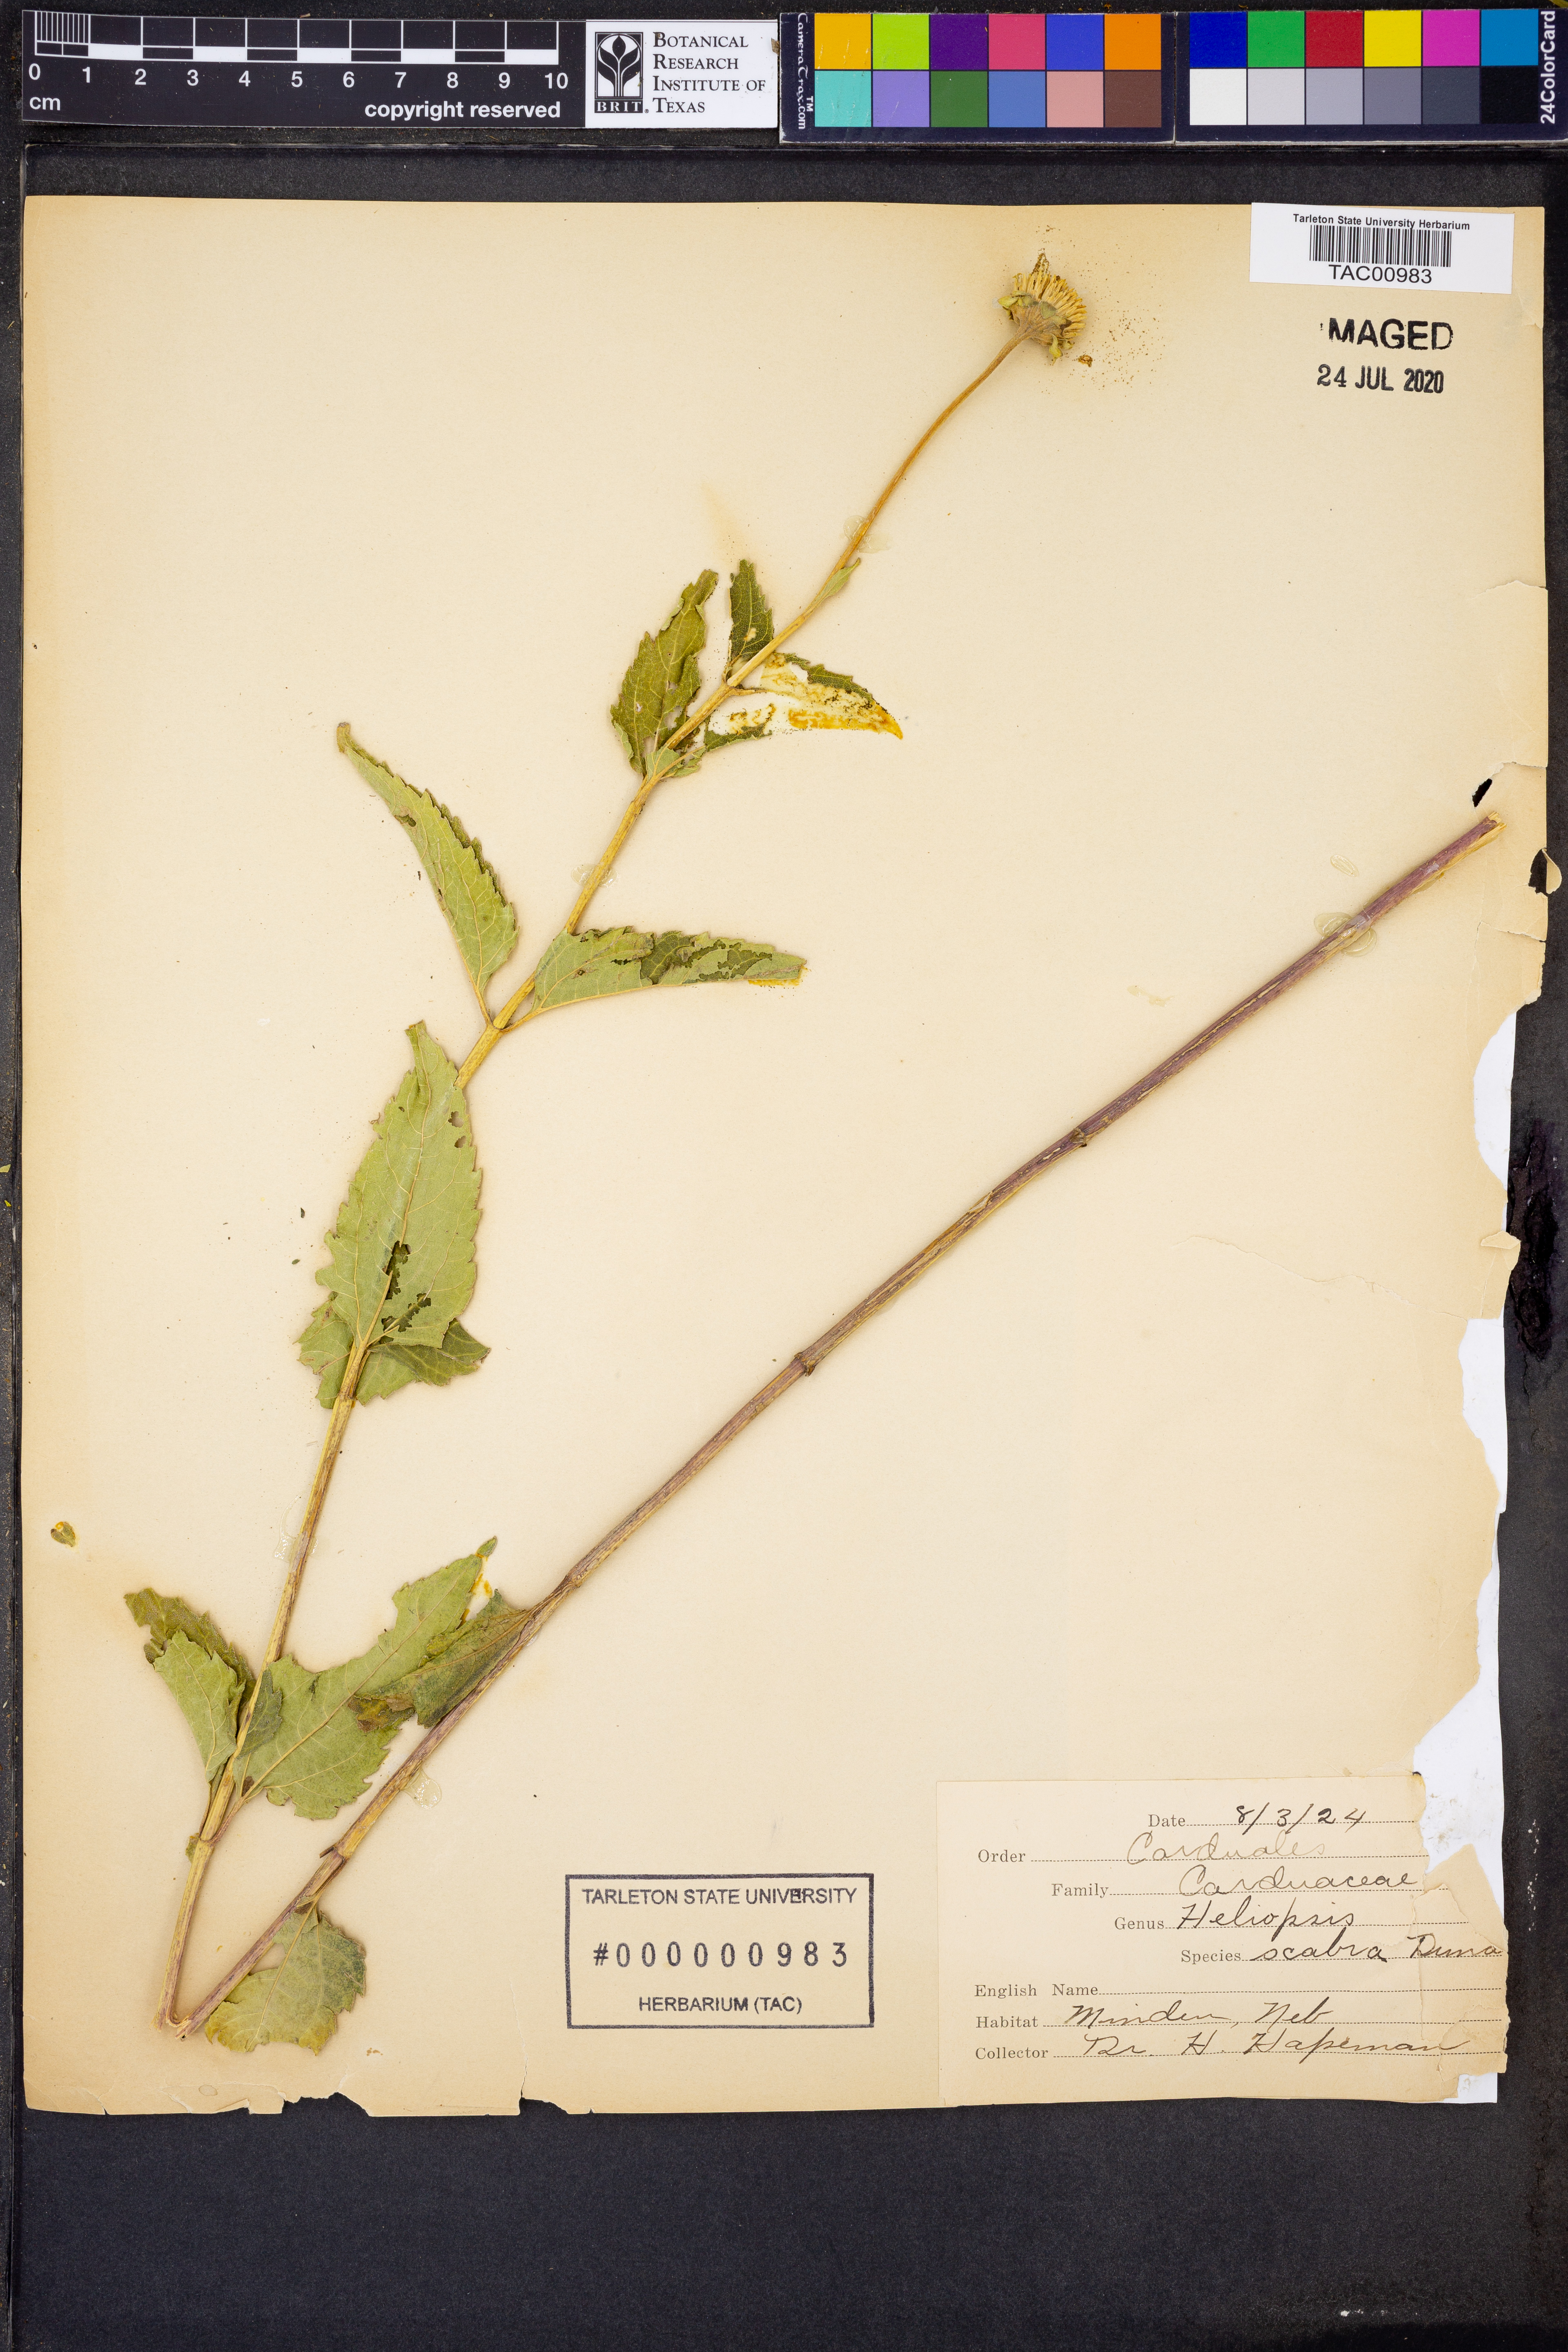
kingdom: Plantae
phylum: Tracheophyta
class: Magnoliopsida
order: Asterales
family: Asteraceae
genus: Heliopsis
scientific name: Heliopsis helianthoides
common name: False sunflower
